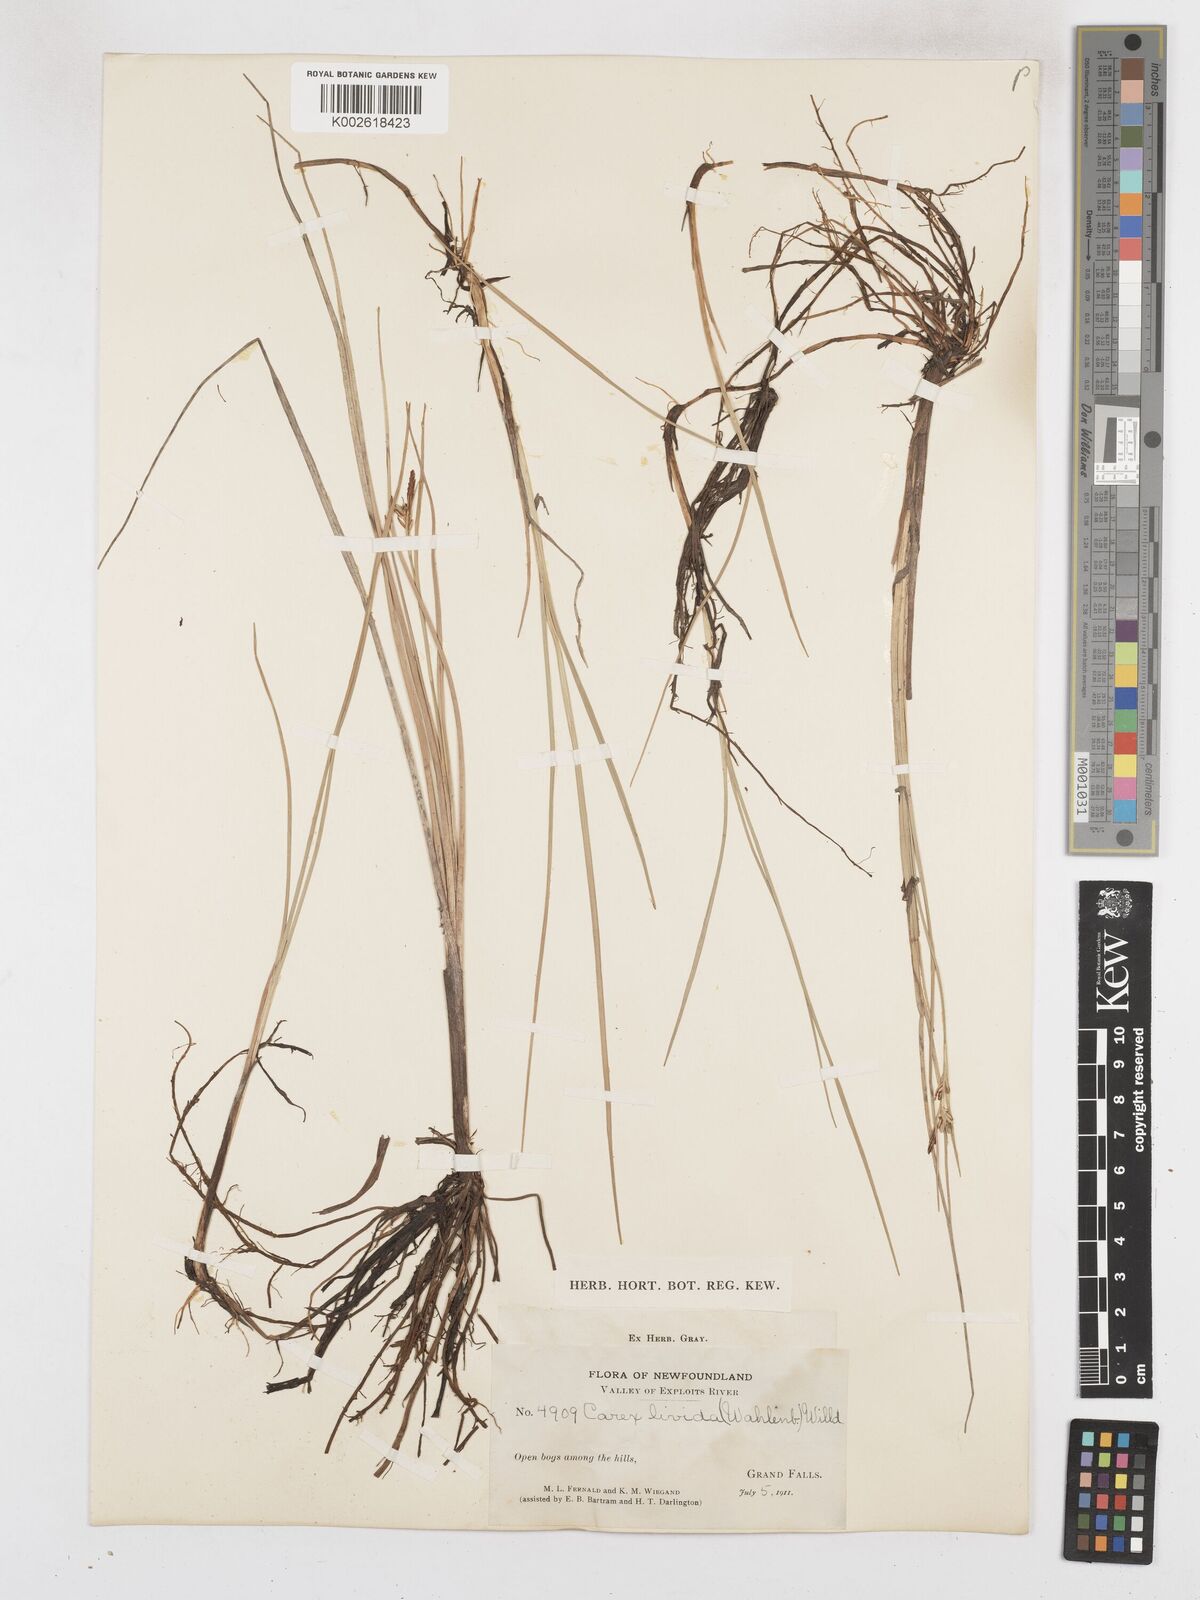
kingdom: Plantae
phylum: Tracheophyta
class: Liliopsida
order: Poales
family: Cyperaceae
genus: Carex
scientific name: Carex livida
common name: Livid sedge
